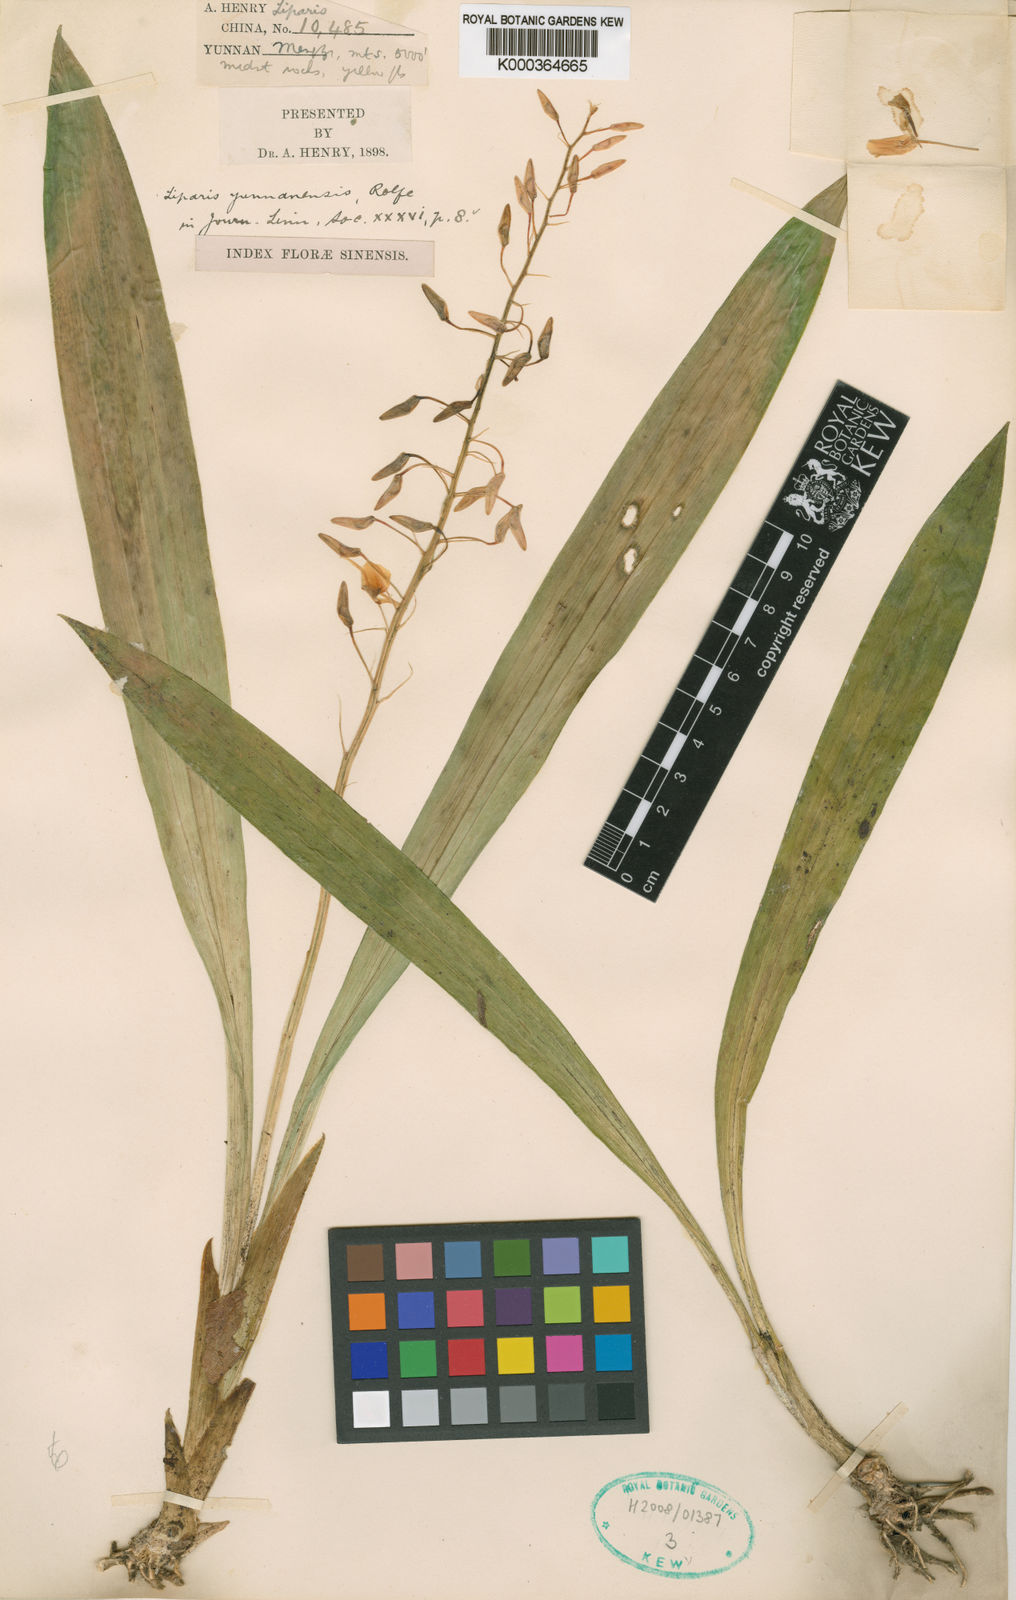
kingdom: Plantae
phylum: Tracheophyta
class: Liliopsida
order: Asparagales
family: Orchidaceae
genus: Liparis
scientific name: Liparis distans
